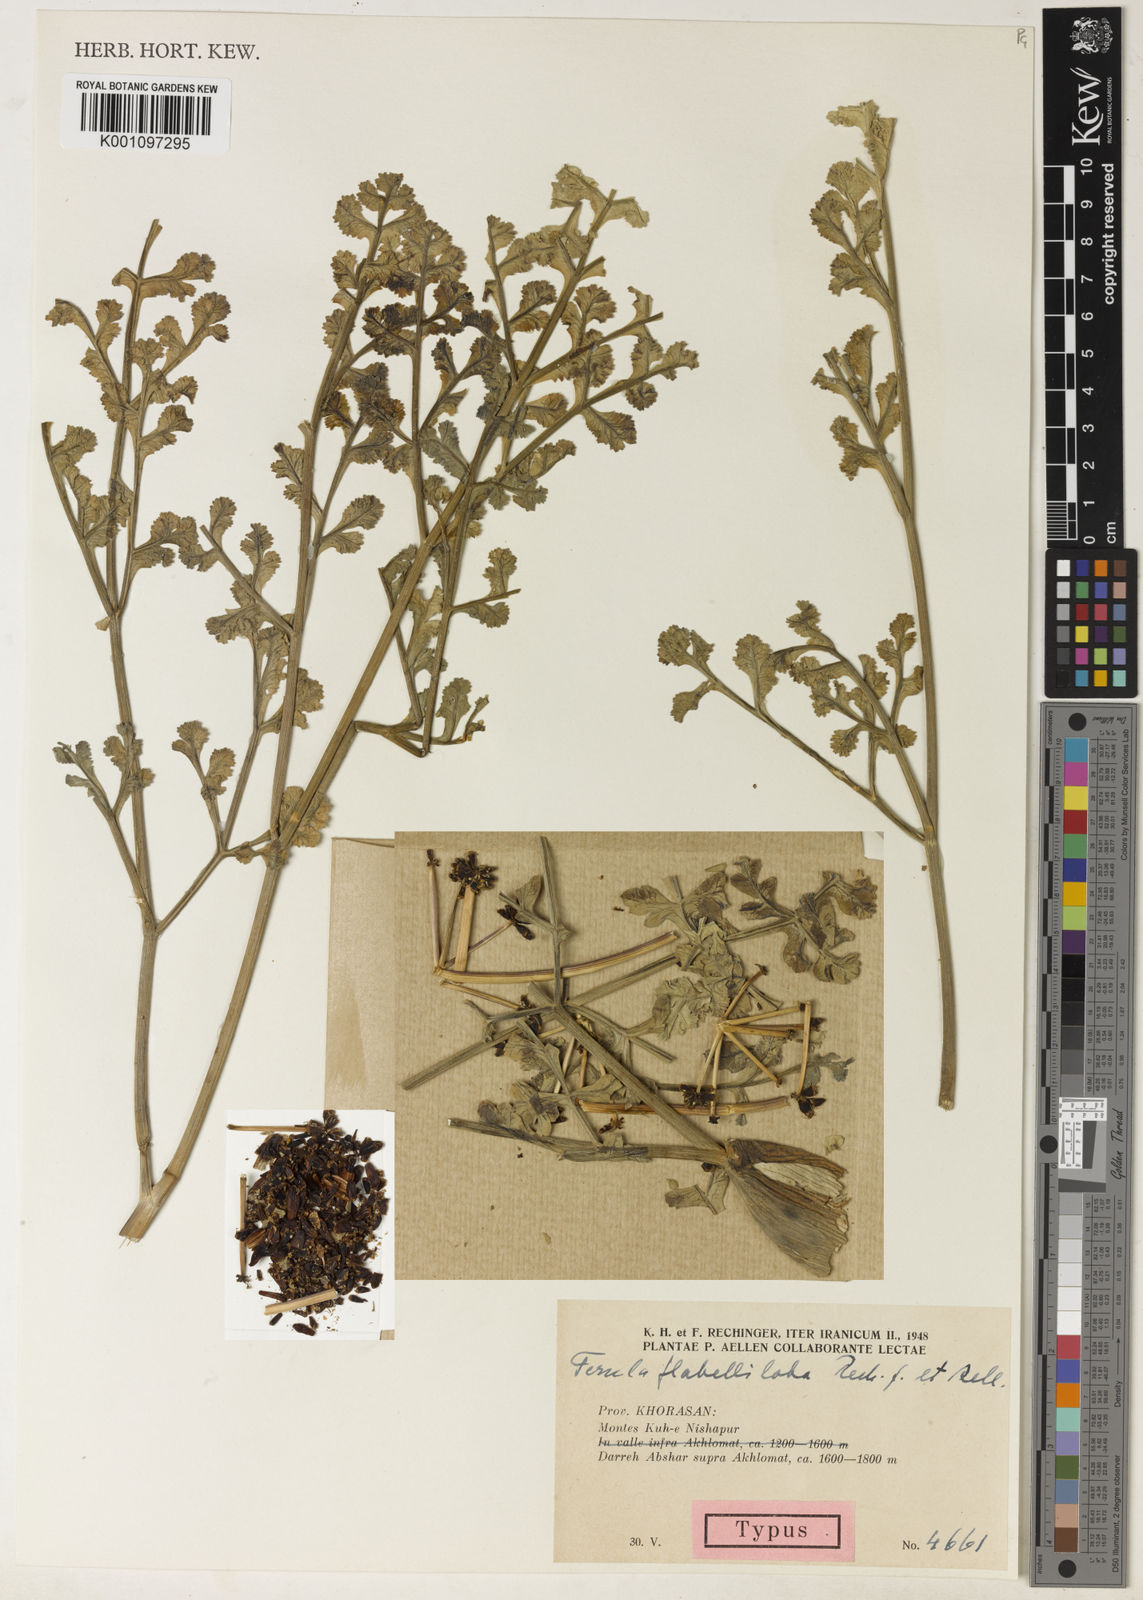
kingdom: Plantae
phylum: Tracheophyta
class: Magnoliopsida
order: Apiales
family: Apiaceae
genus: Ferula
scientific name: Ferula flabelliloba
